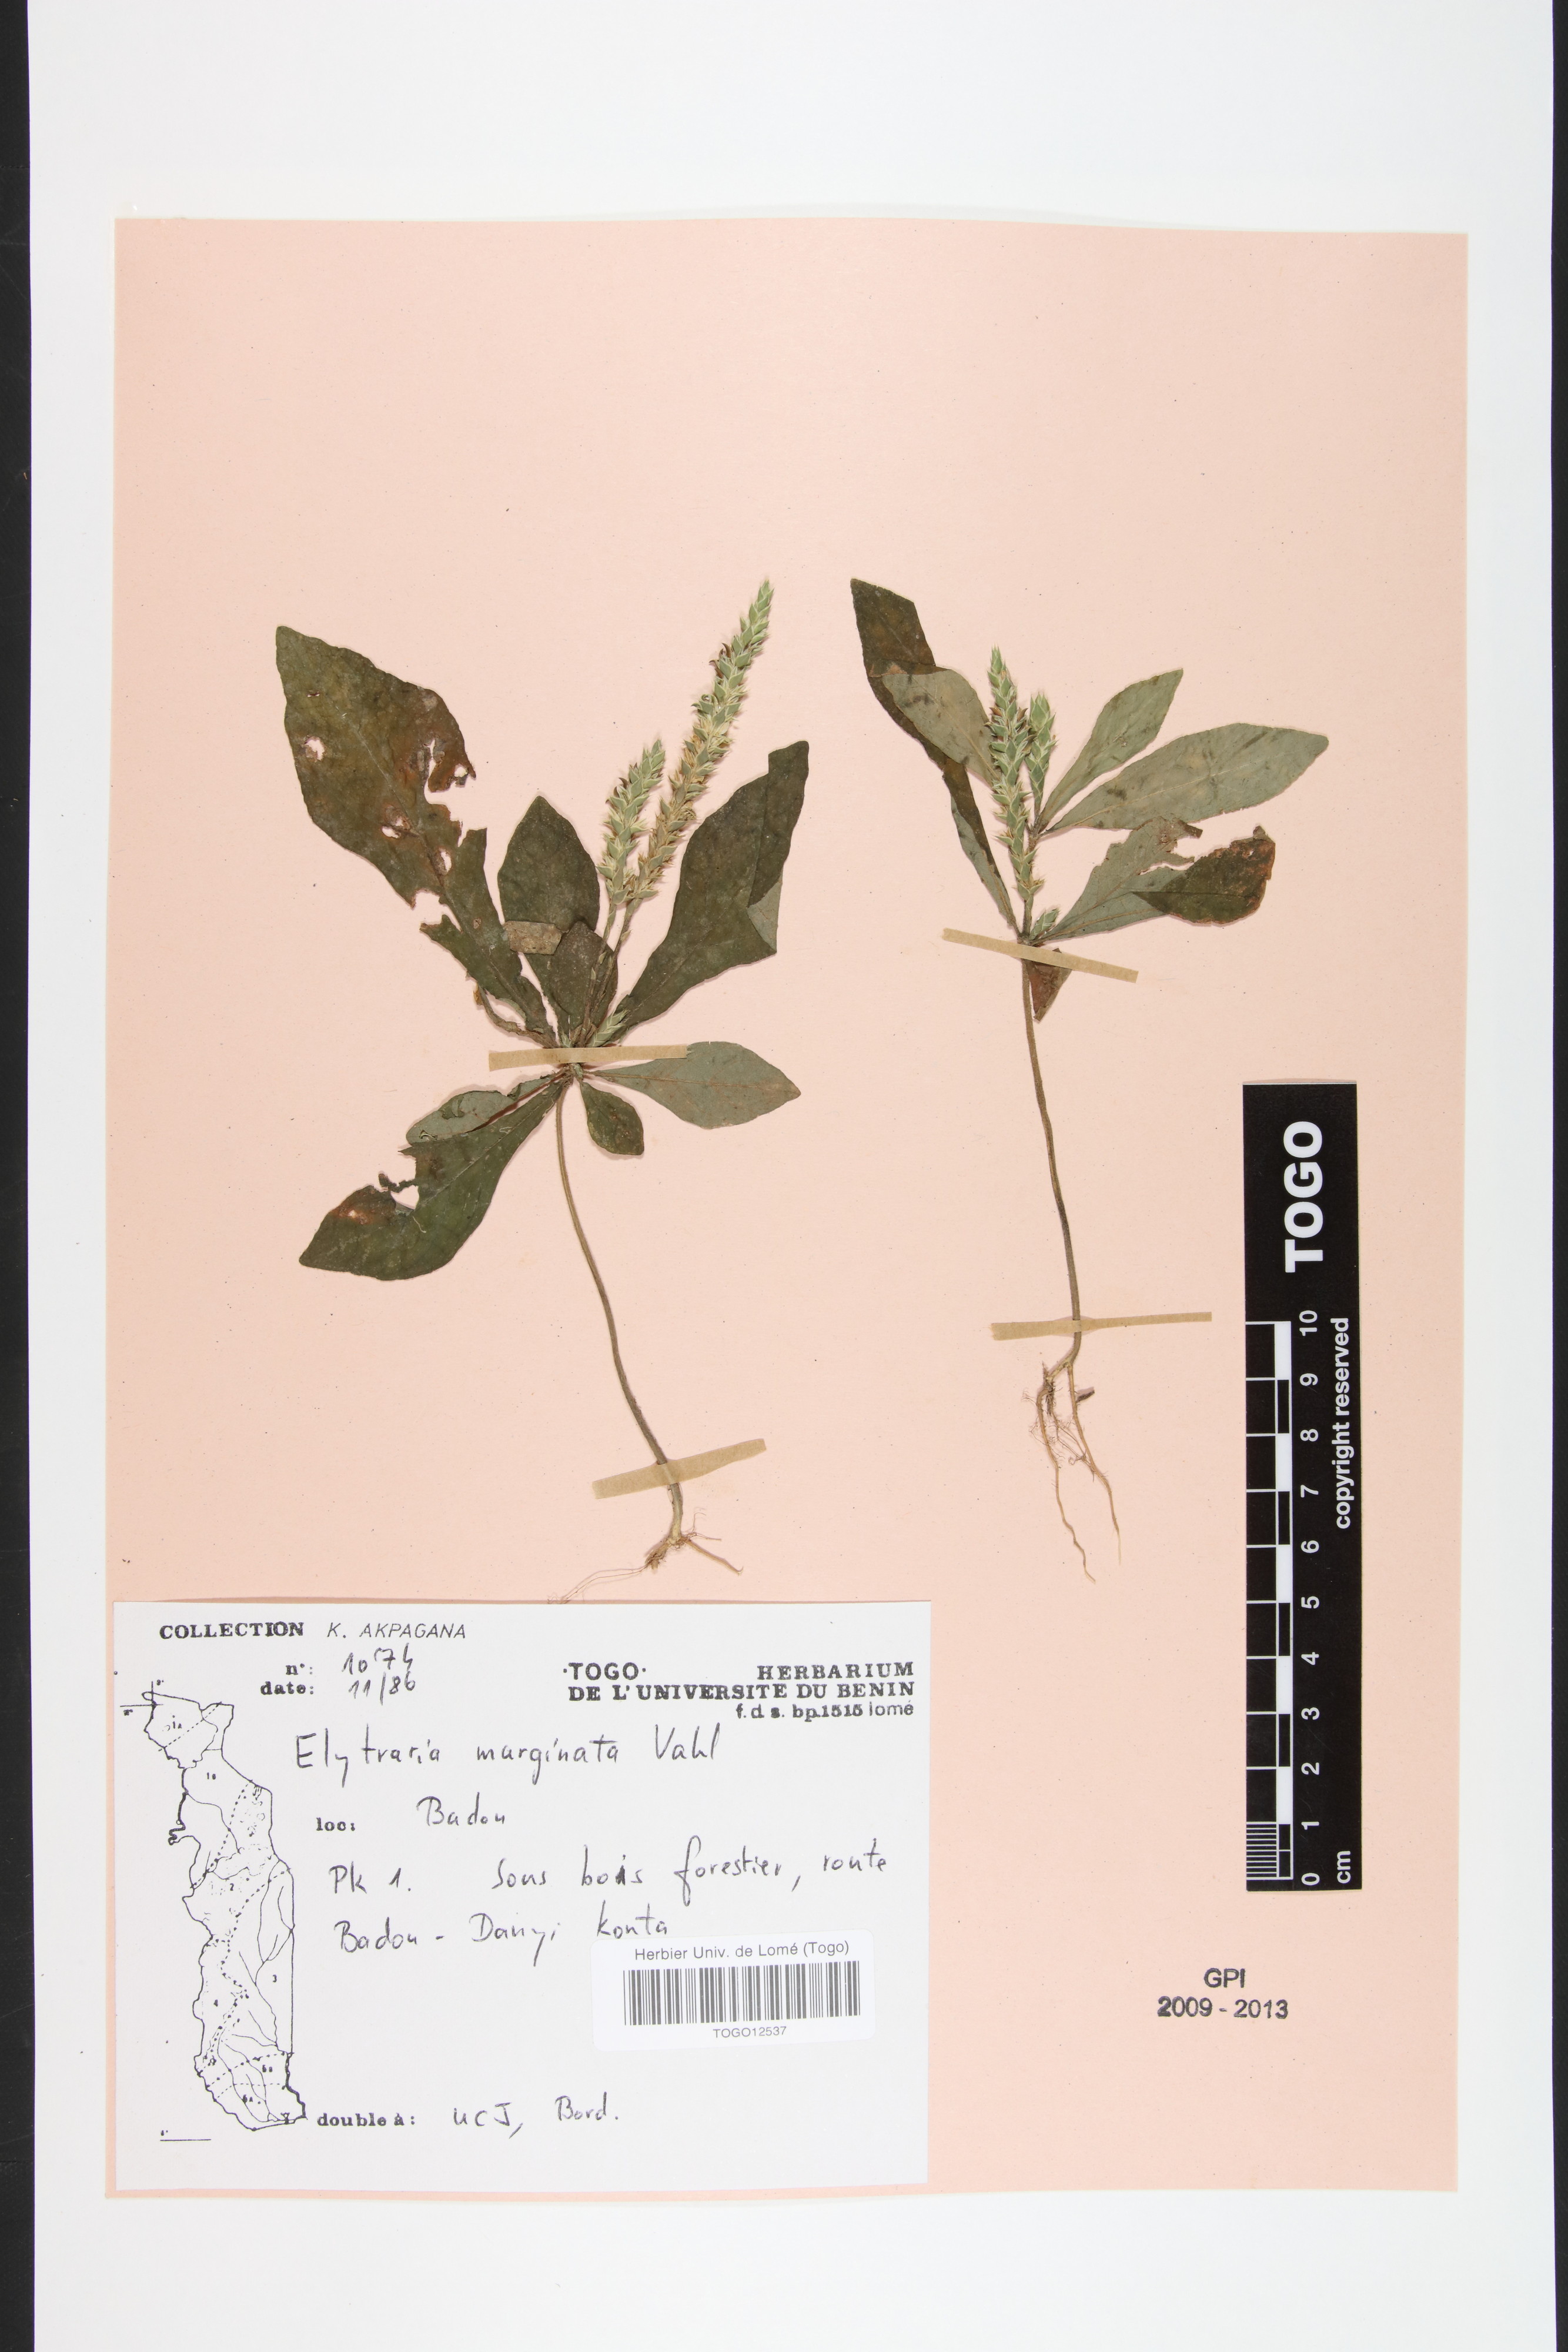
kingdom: Plantae
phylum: Tracheophyta
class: Magnoliopsida
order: Lamiales
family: Acanthaceae
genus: Elytraria
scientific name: Elytraria marginata
